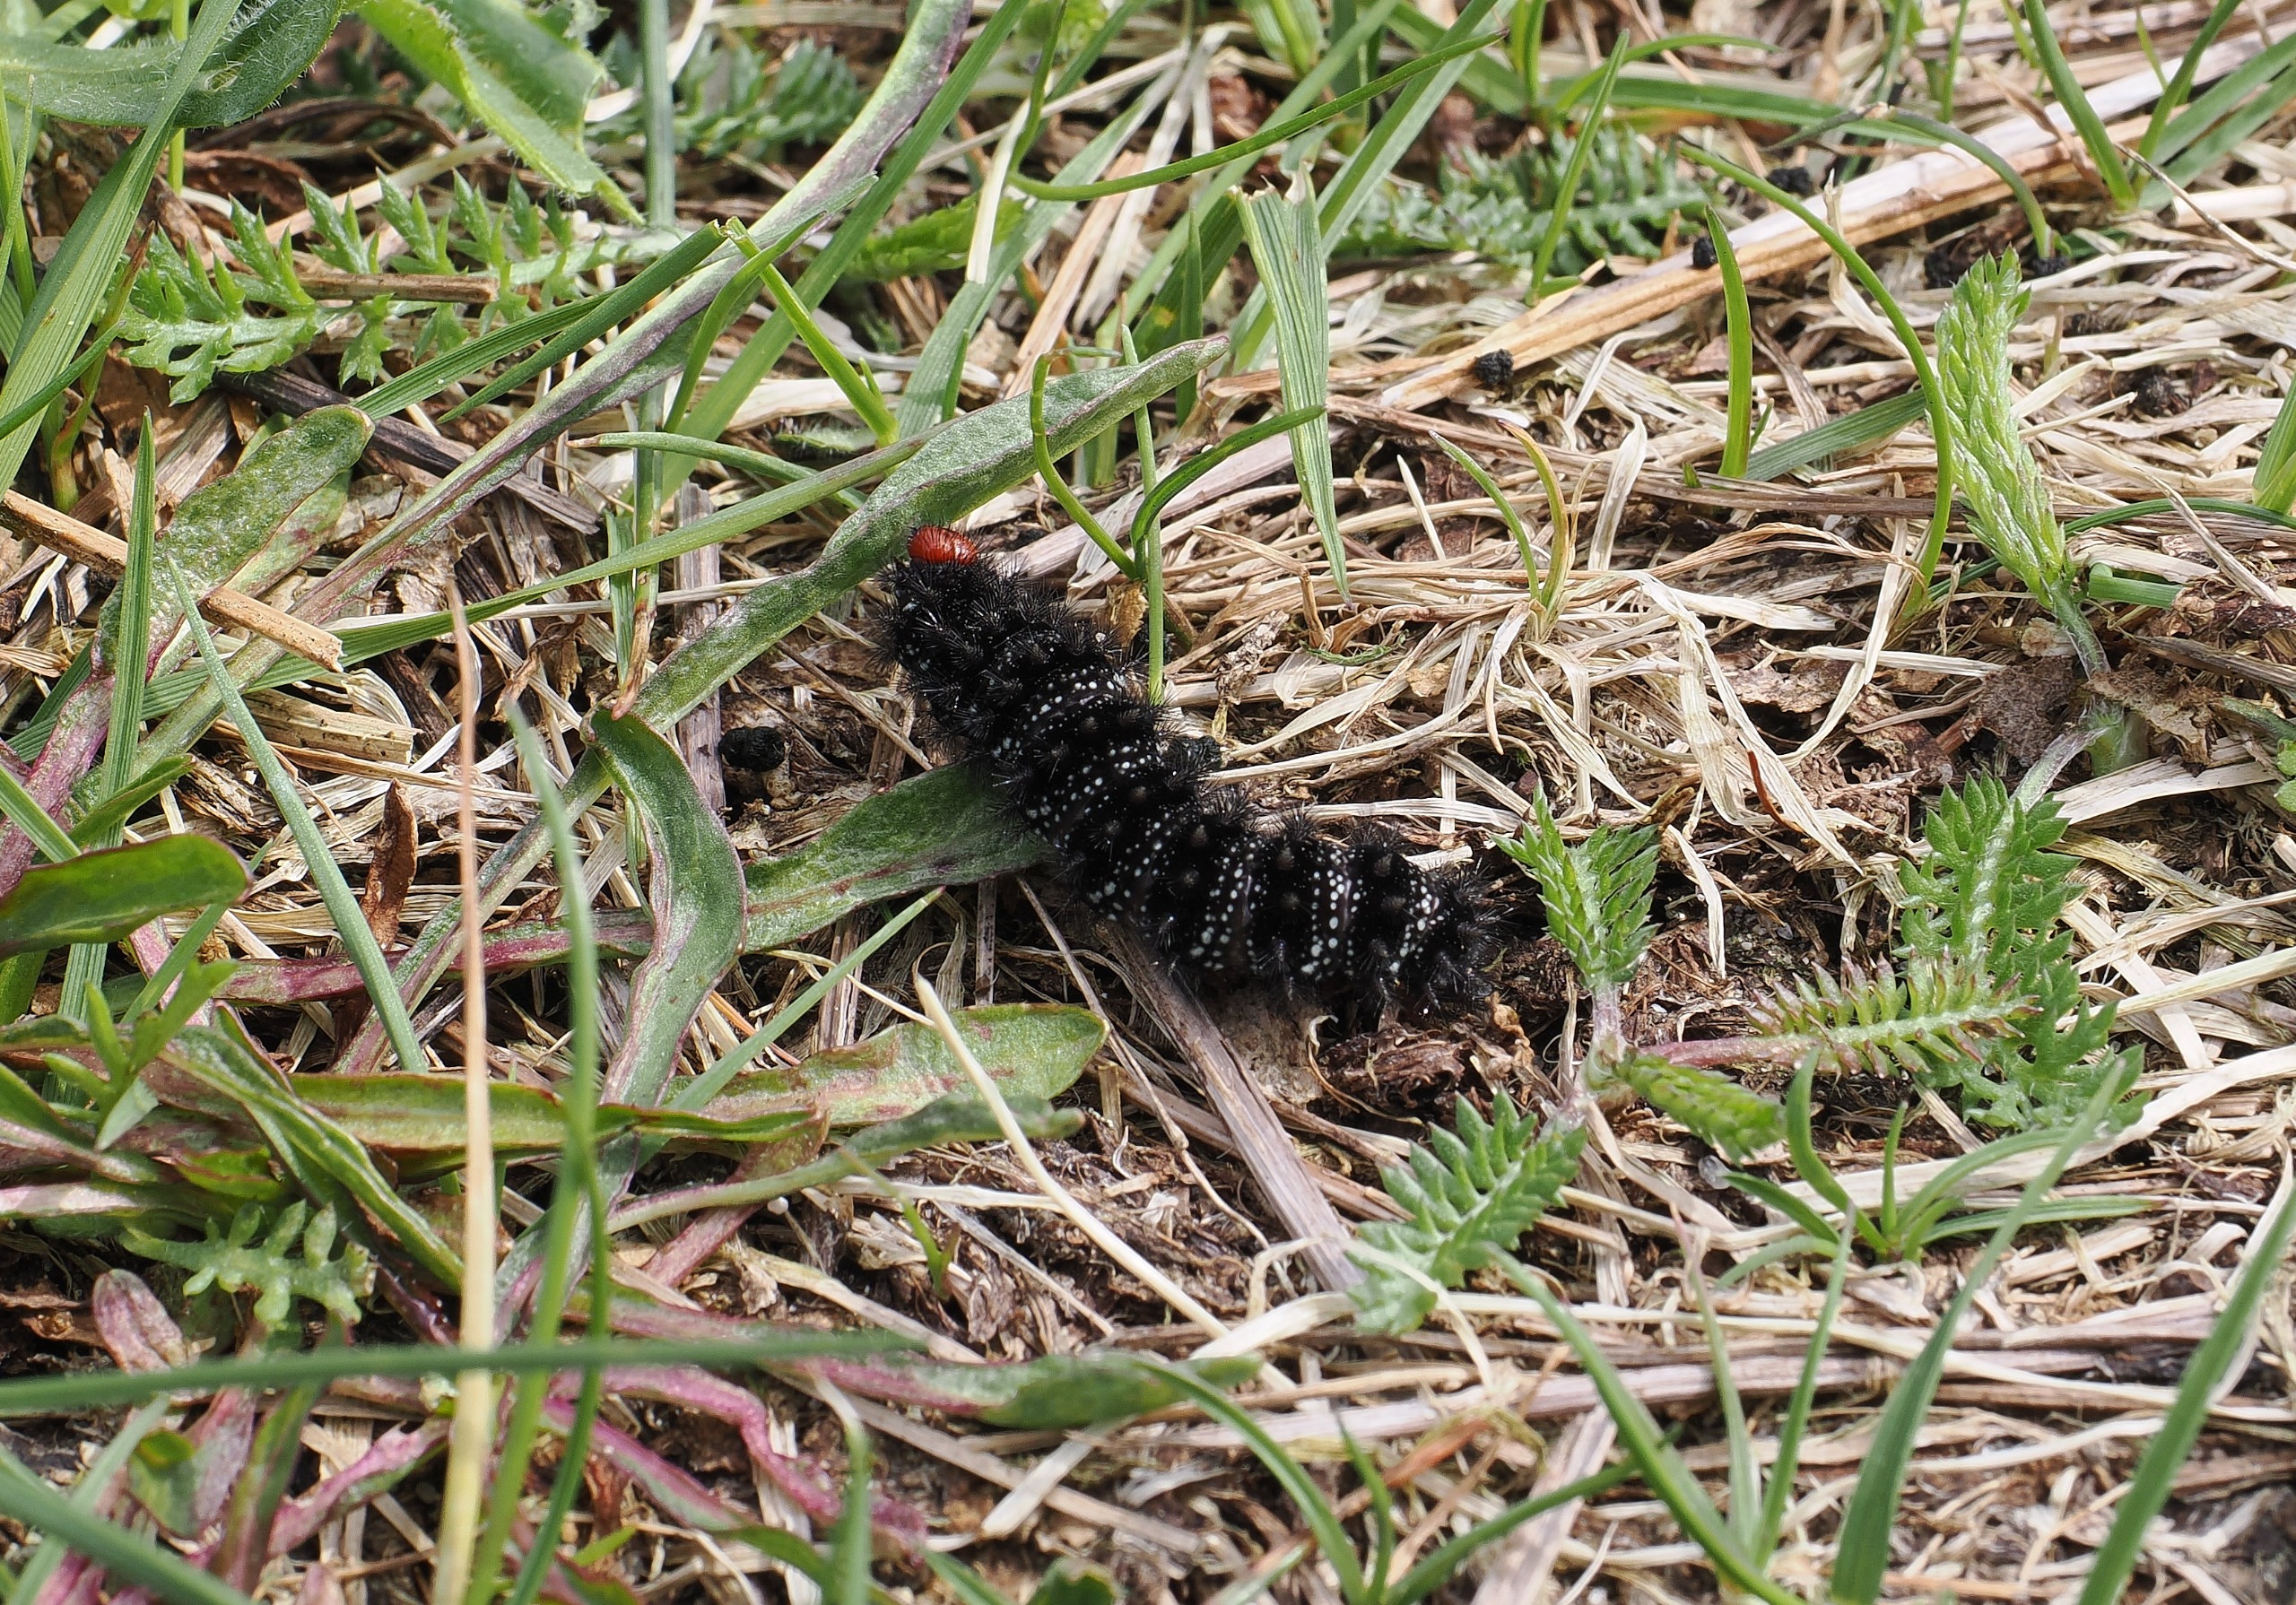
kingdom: Animalia
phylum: Arthropoda
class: Insecta
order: Lepidoptera
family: Nymphalidae
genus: Melitaea
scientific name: Melitaea cinxia
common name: Okkergul pletvinge
